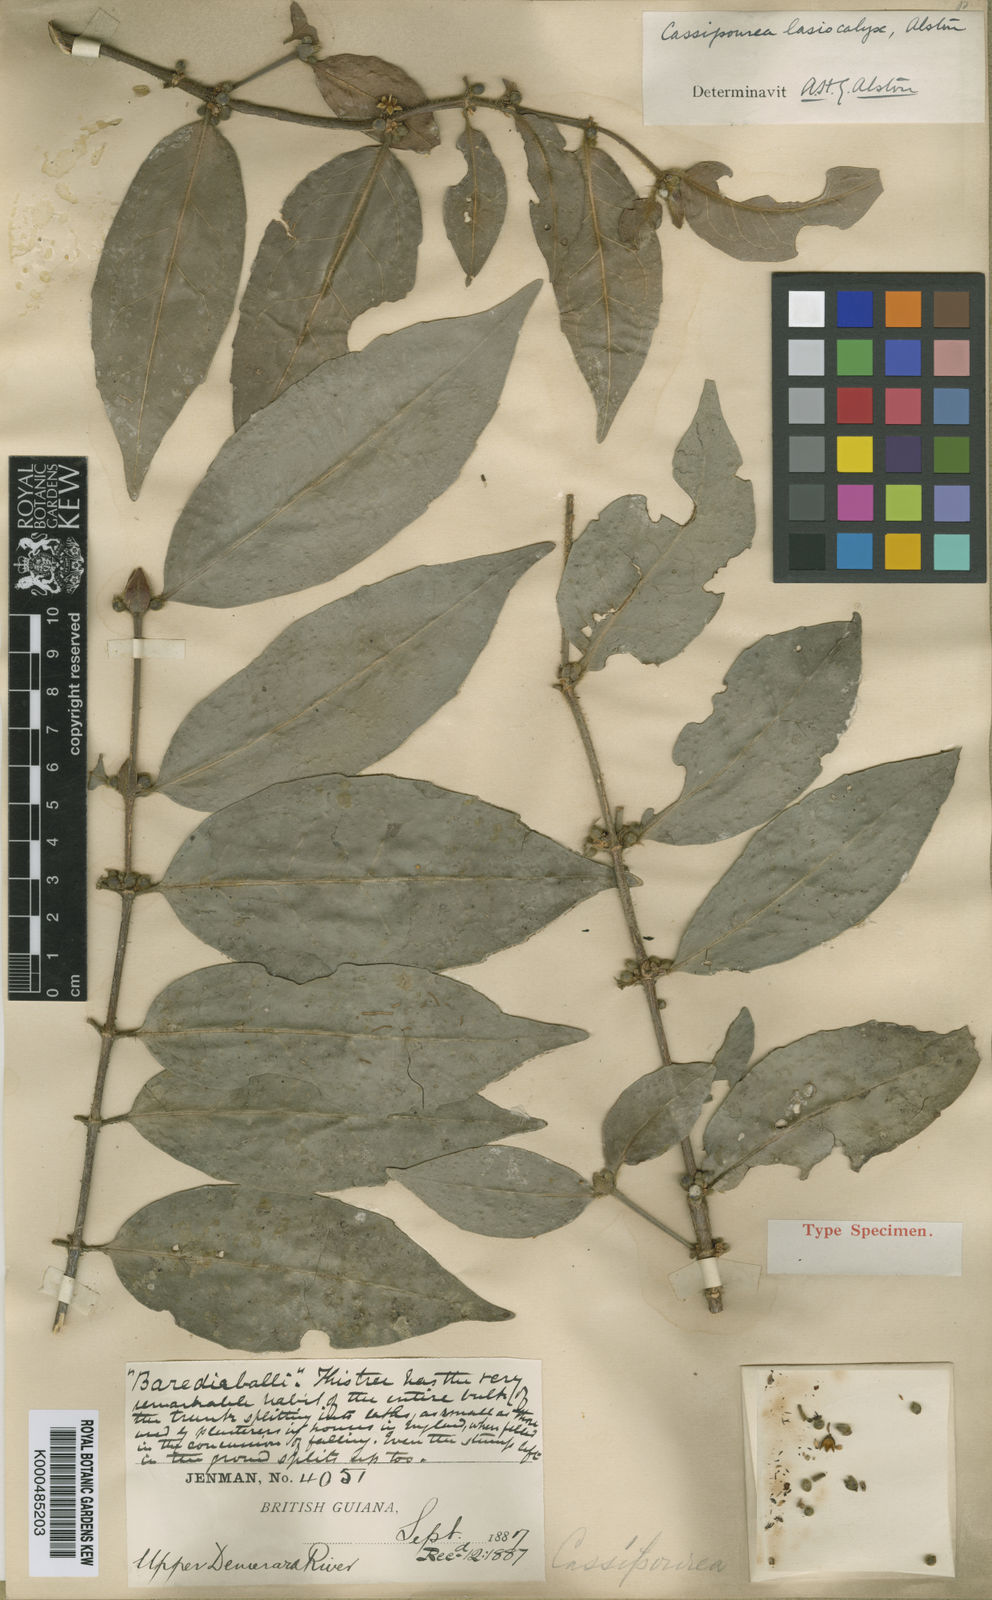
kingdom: Plantae
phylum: Tracheophyta
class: Magnoliopsida
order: Malpighiales
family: Rhizophoraceae
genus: Cassipourea
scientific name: Cassipourea lasiocalyx
